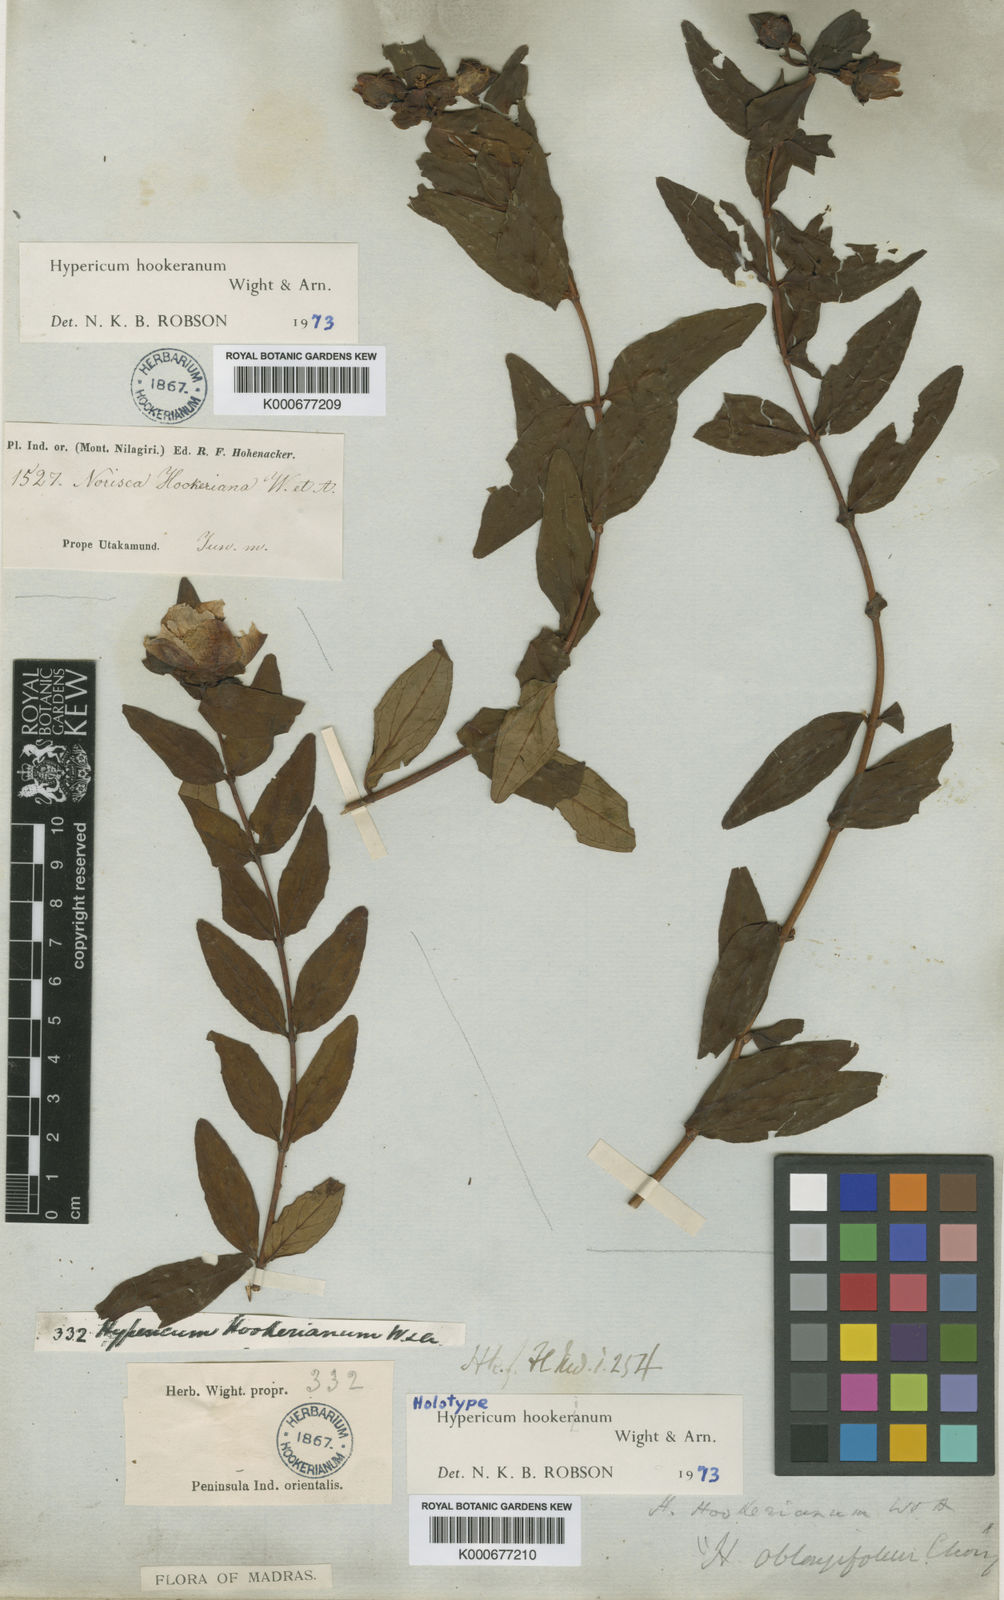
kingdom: Plantae
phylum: Tracheophyta
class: Magnoliopsida
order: Malpighiales
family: Hypericaceae
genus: Hypericum
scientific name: Hypericum hookerianum
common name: Hooker's st. johnswort
